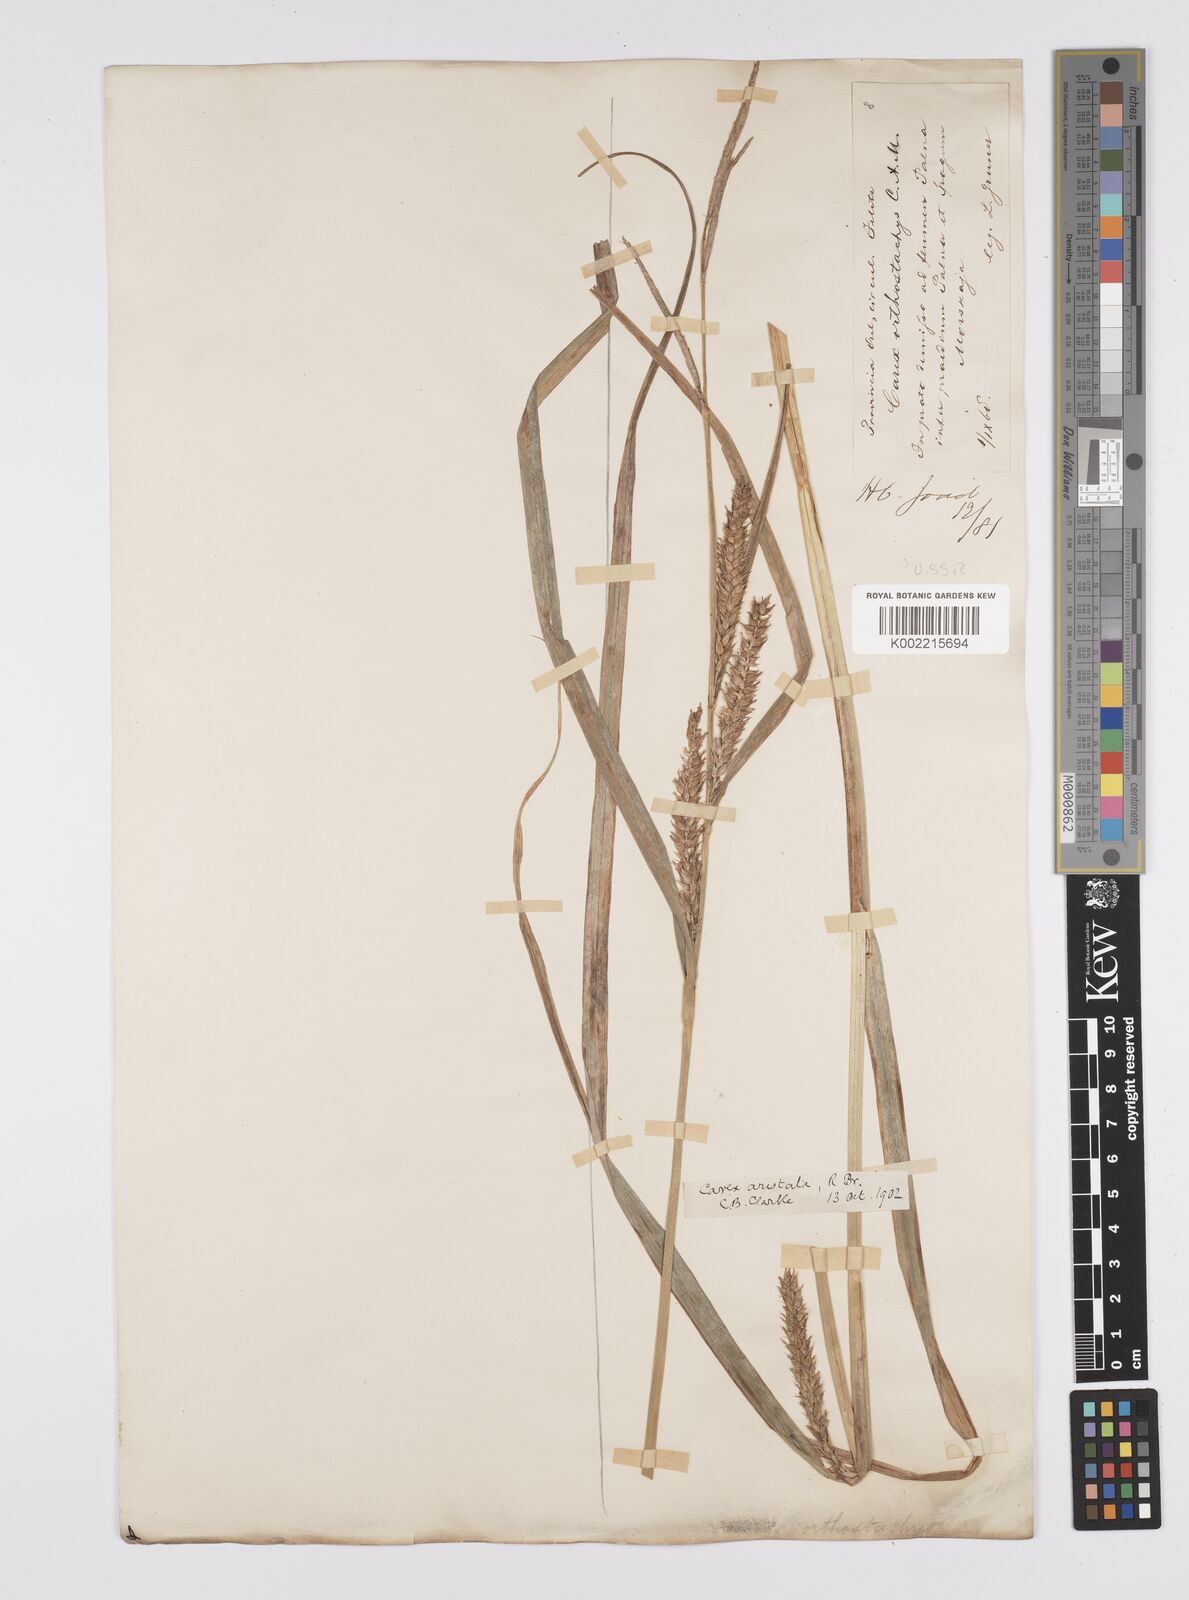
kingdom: Plantae
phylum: Tracheophyta
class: Liliopsida
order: Poales
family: Cyperaceae
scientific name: Cyperaceae
